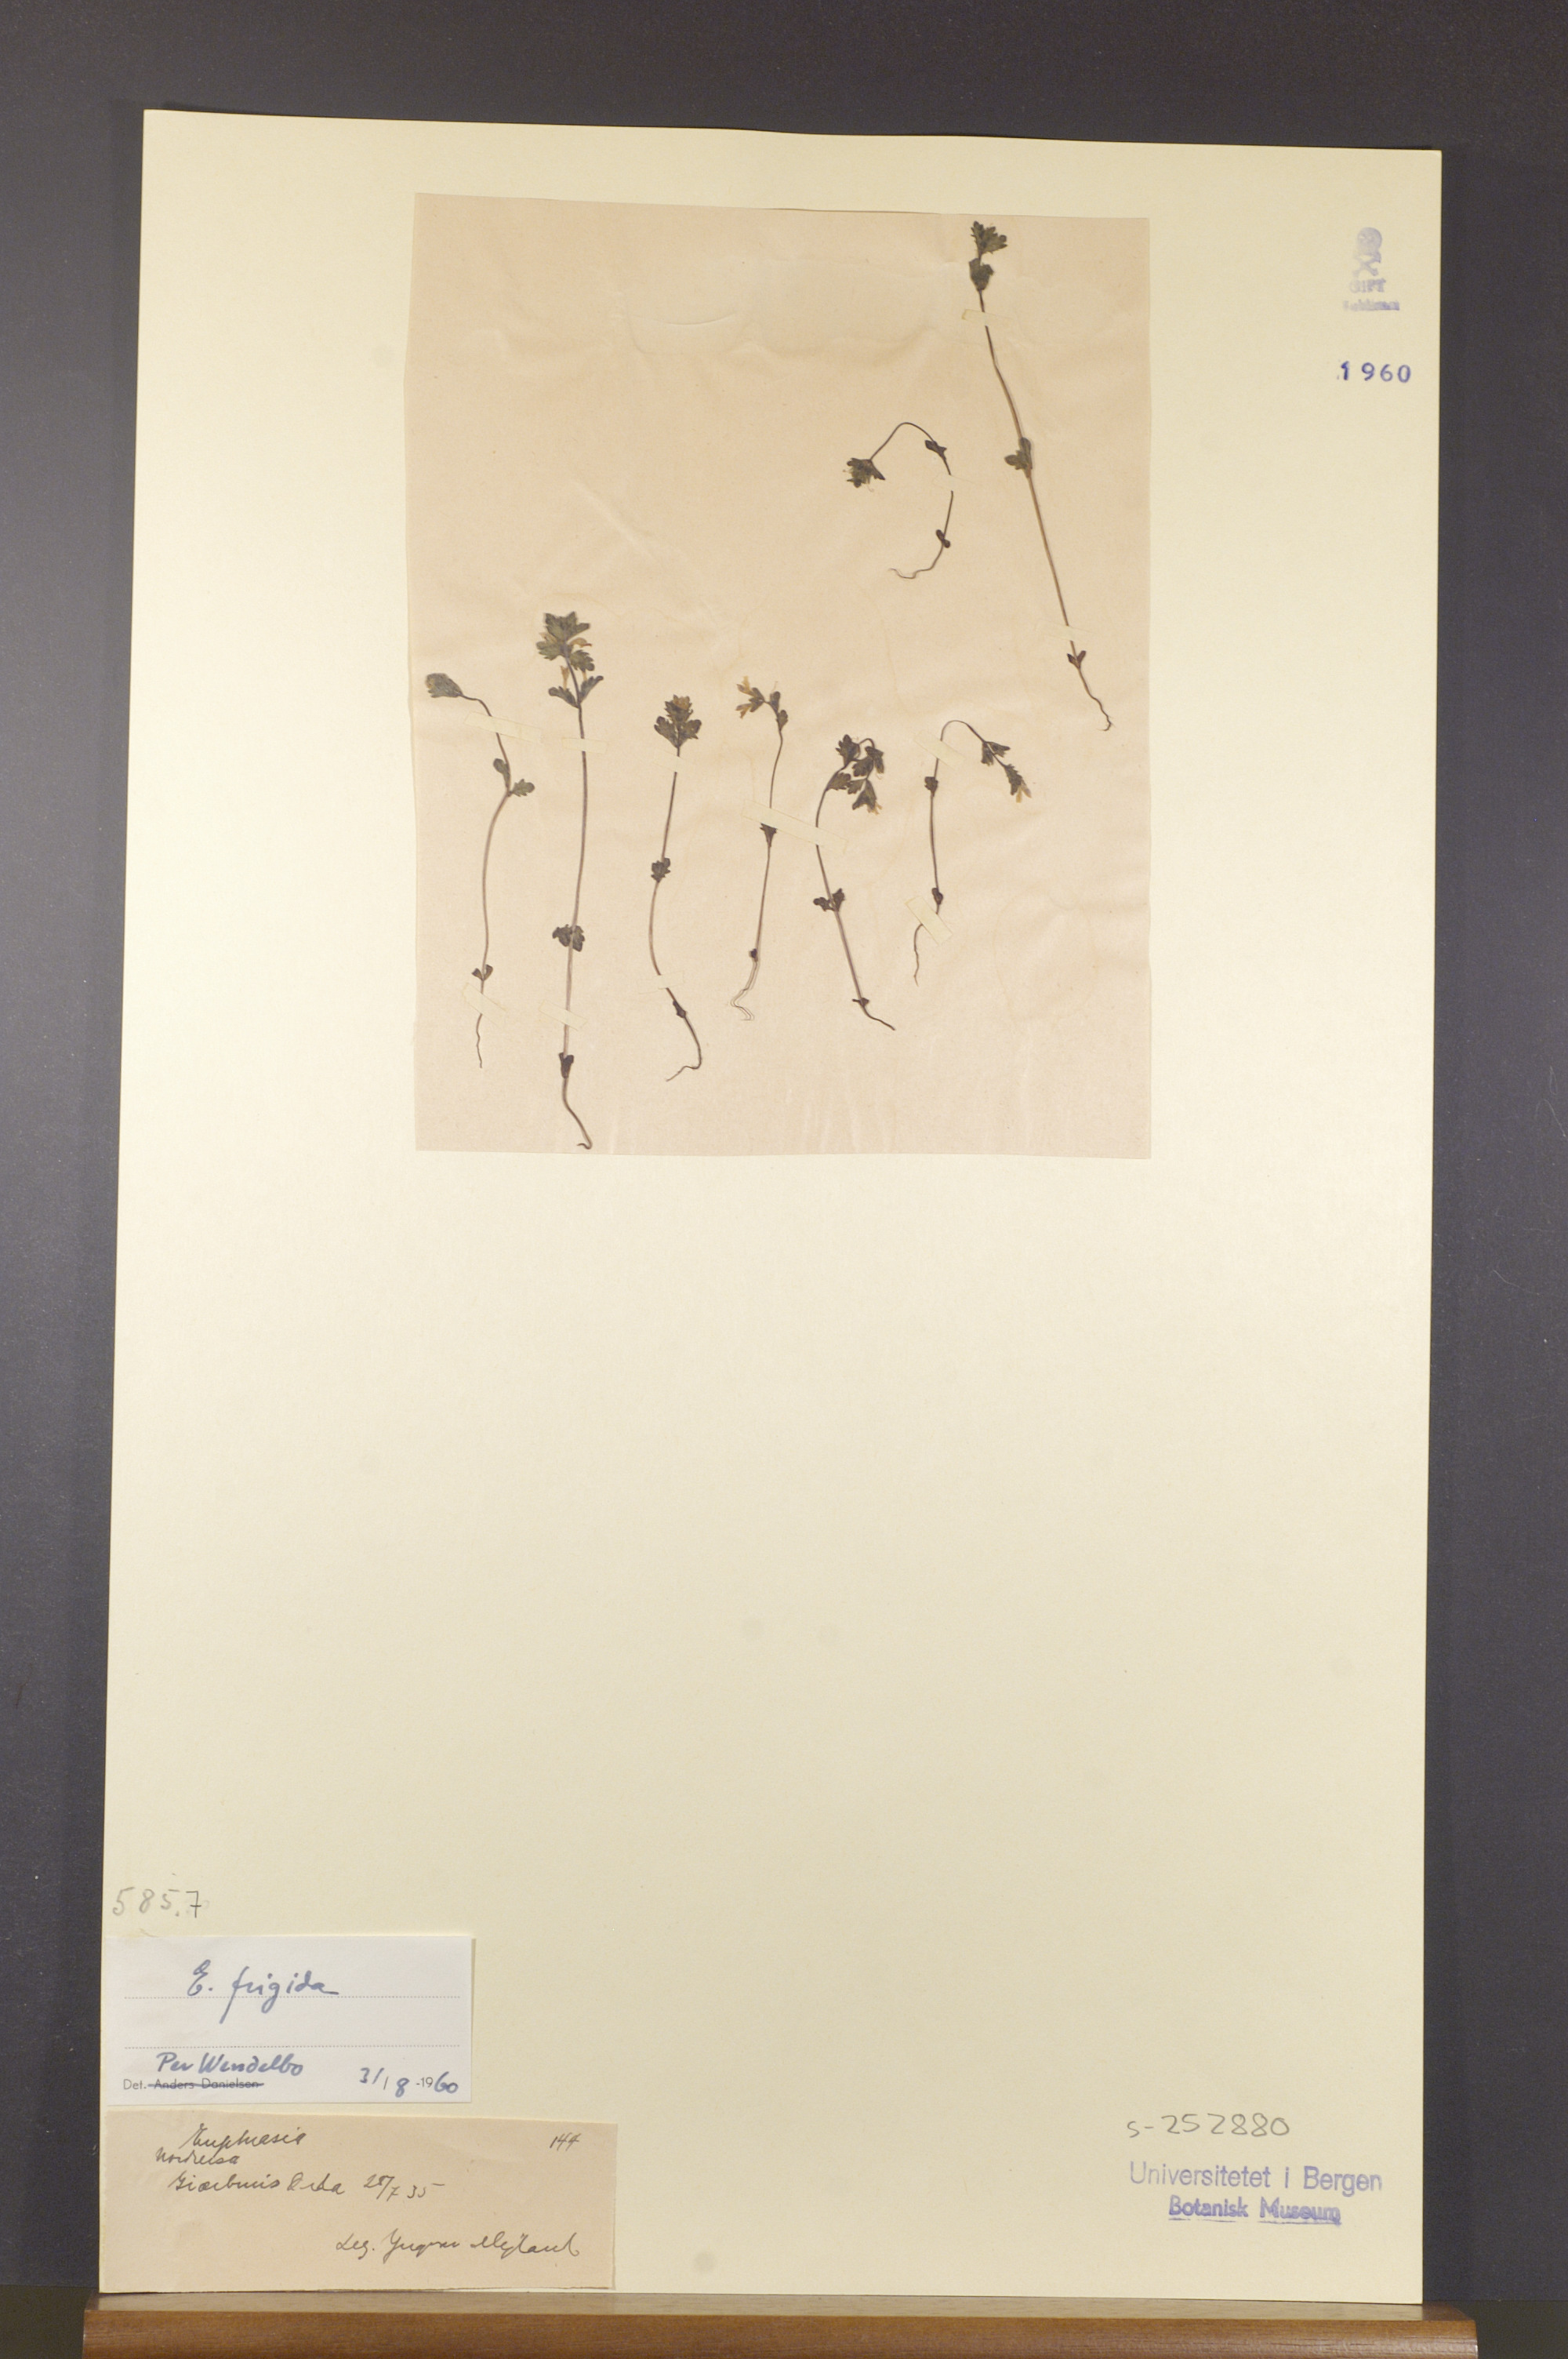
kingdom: Plantae
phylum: Tracheophyta
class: Magnoliopsida
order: Lamiales
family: Orobanchaceae
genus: Euphrasia
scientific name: Euphrasia frigida
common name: An eyebright
